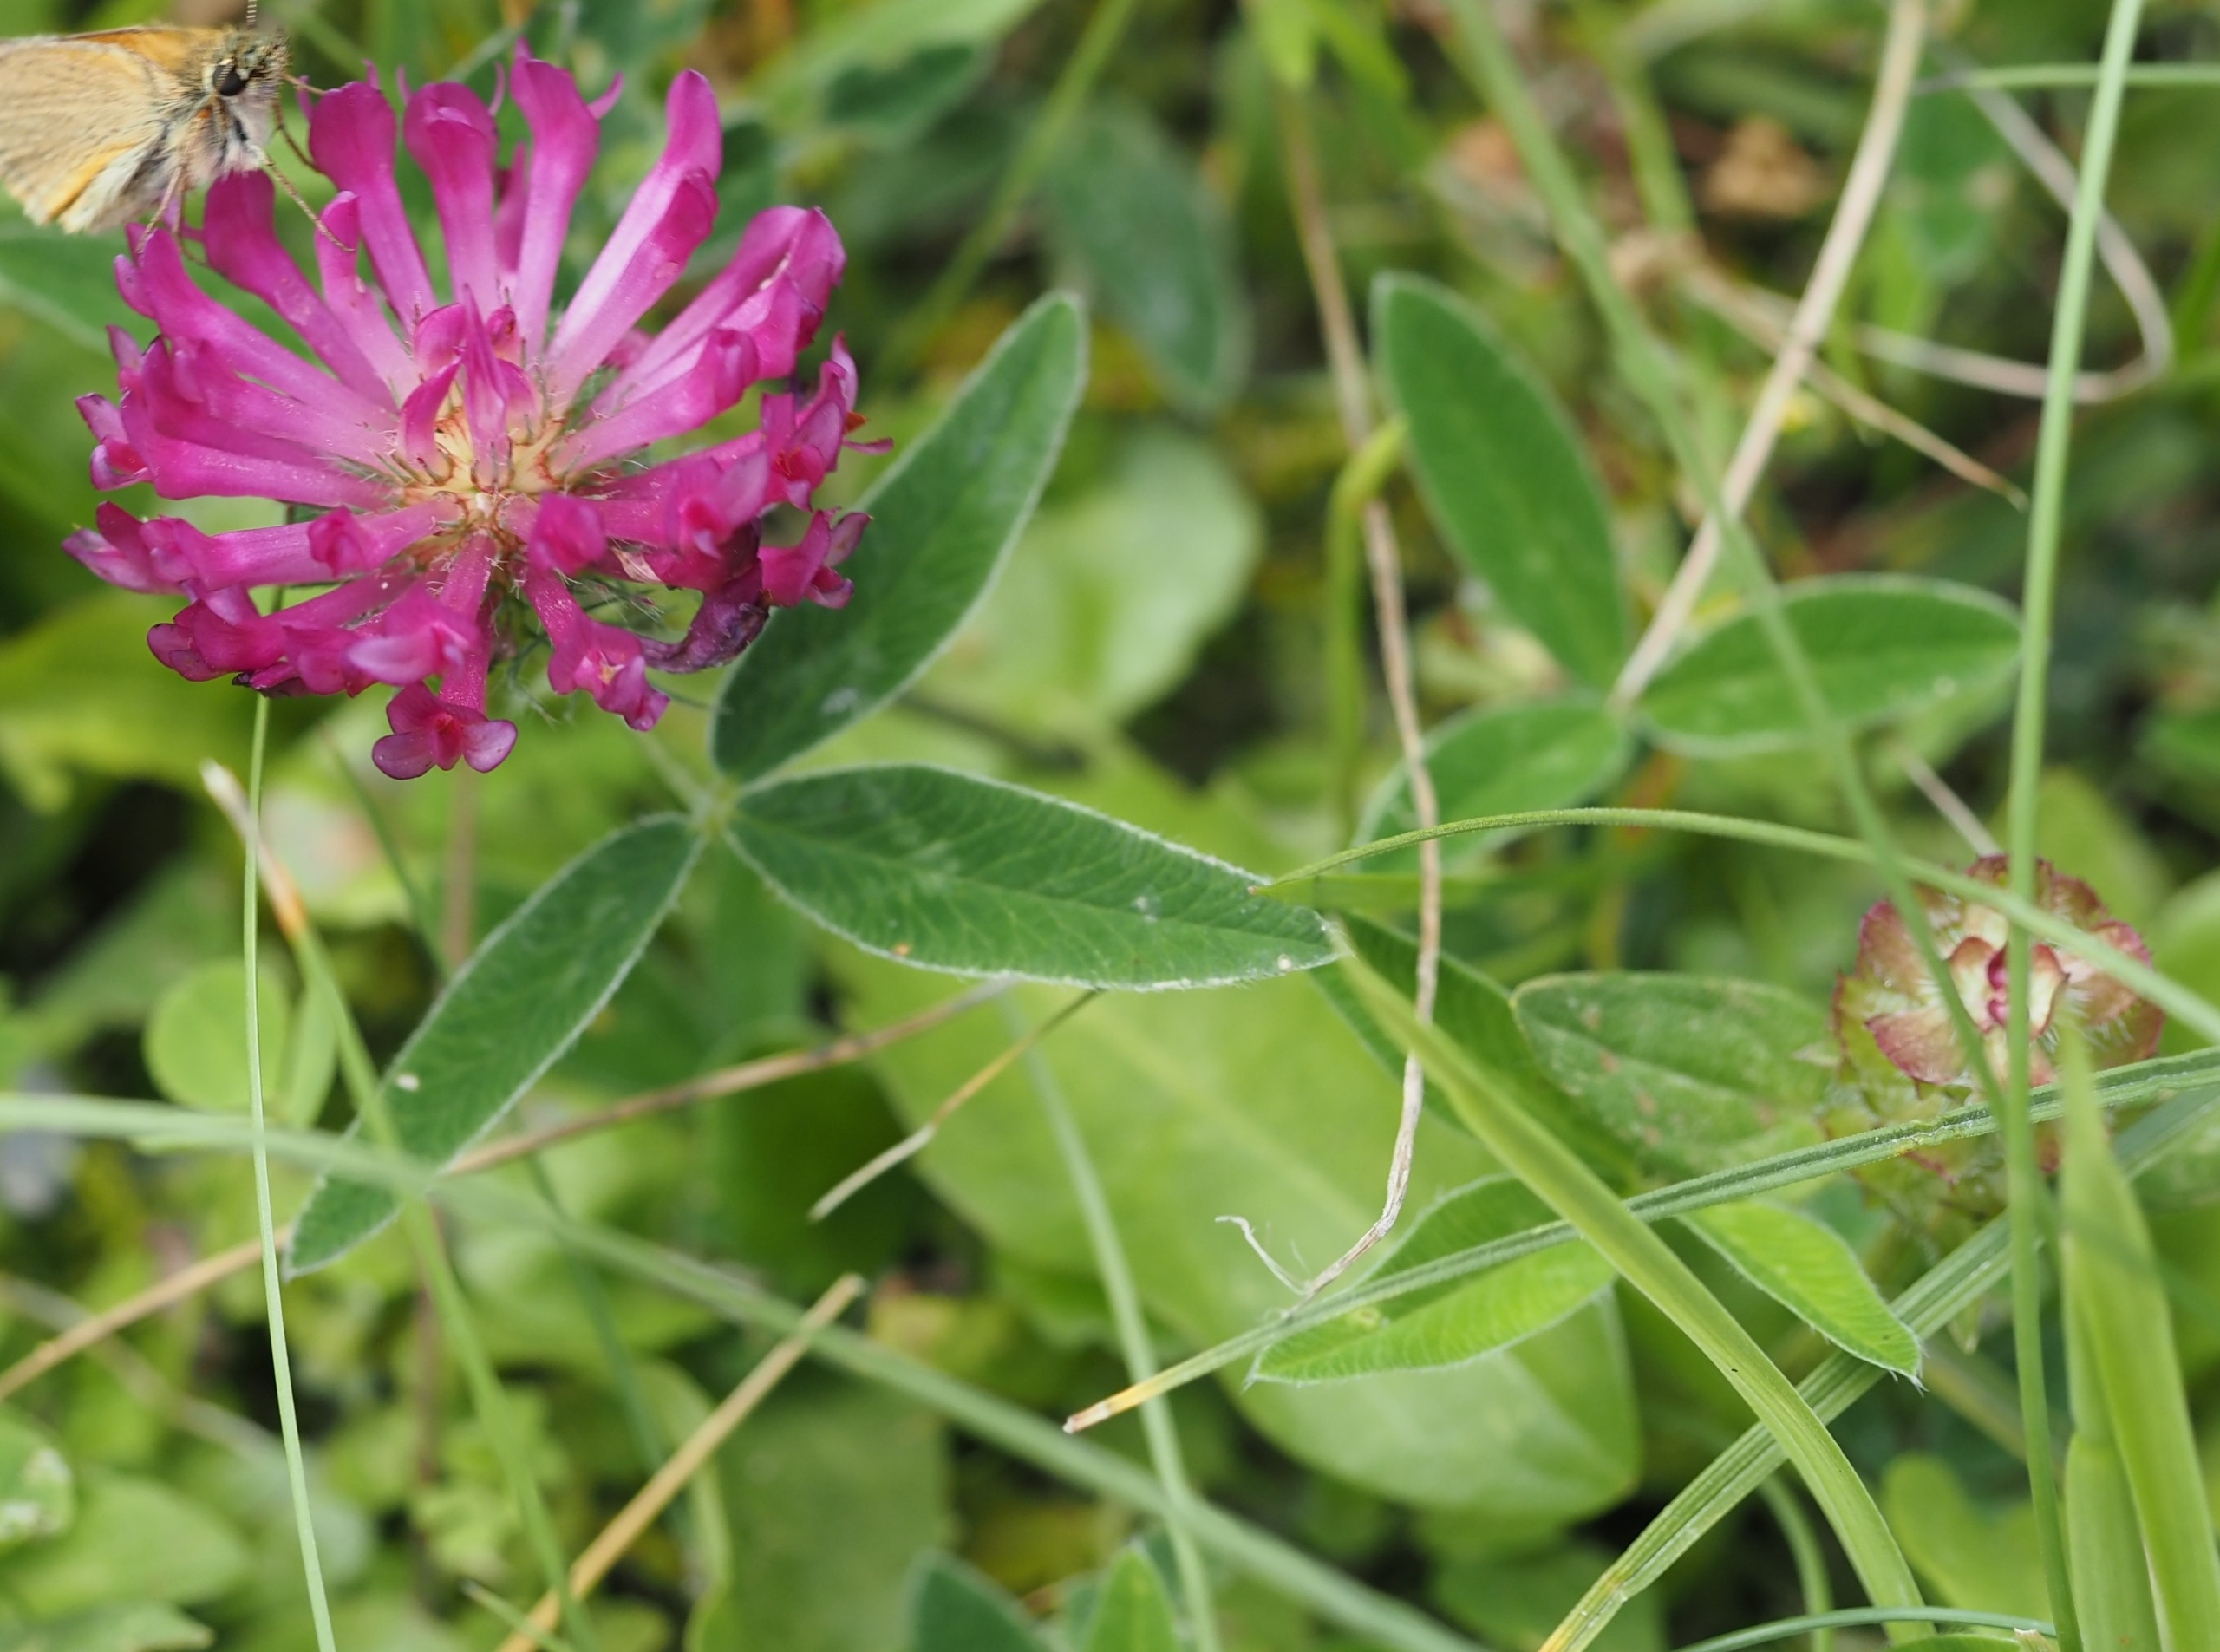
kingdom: Plantae
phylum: Tracheophyta
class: Magnoliopsida
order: Fabales
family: Fabaceae
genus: Trifolium
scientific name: Trifolium medium
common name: Bugtet kløver
